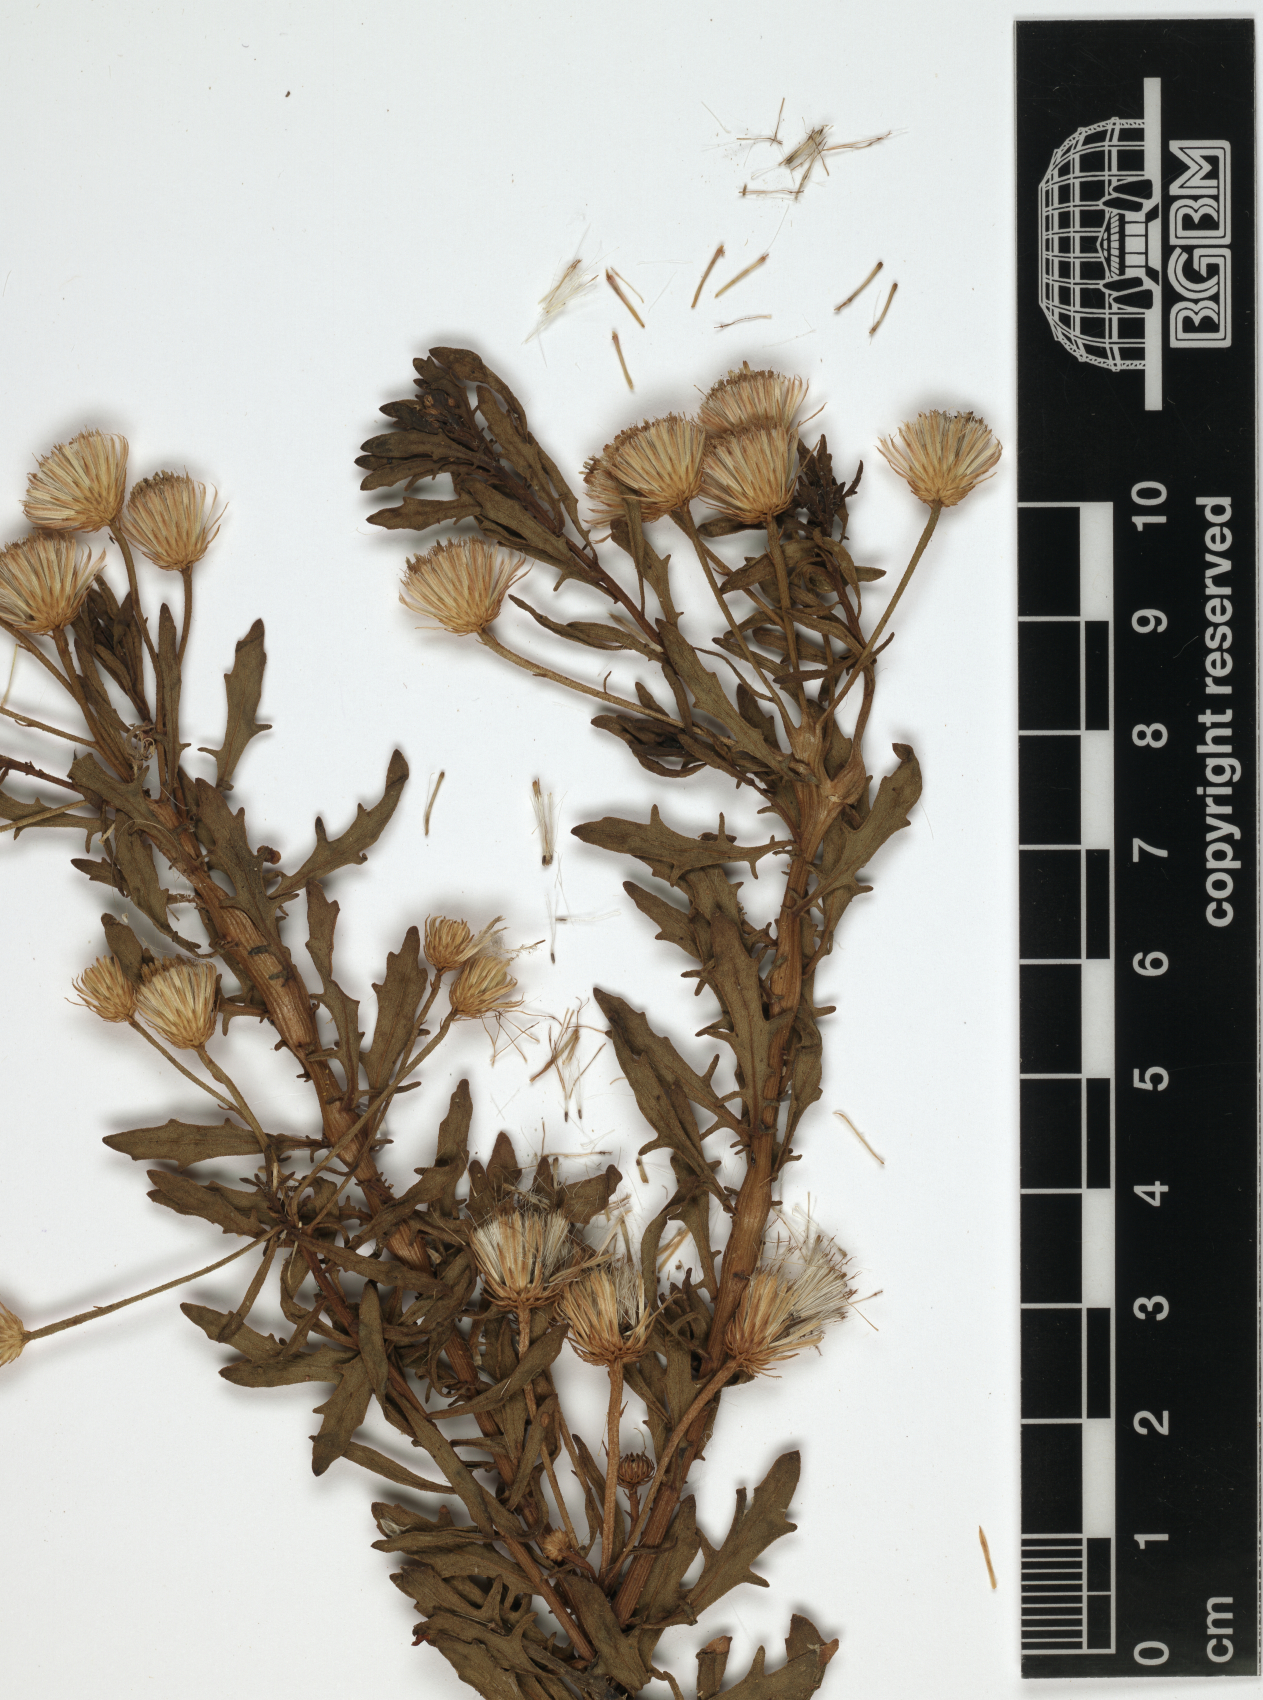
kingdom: Plantae
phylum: Tracheophyta
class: Magnoliopsida
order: Asterales
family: Asteraceae
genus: Pluchea
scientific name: Pluchea arabica
